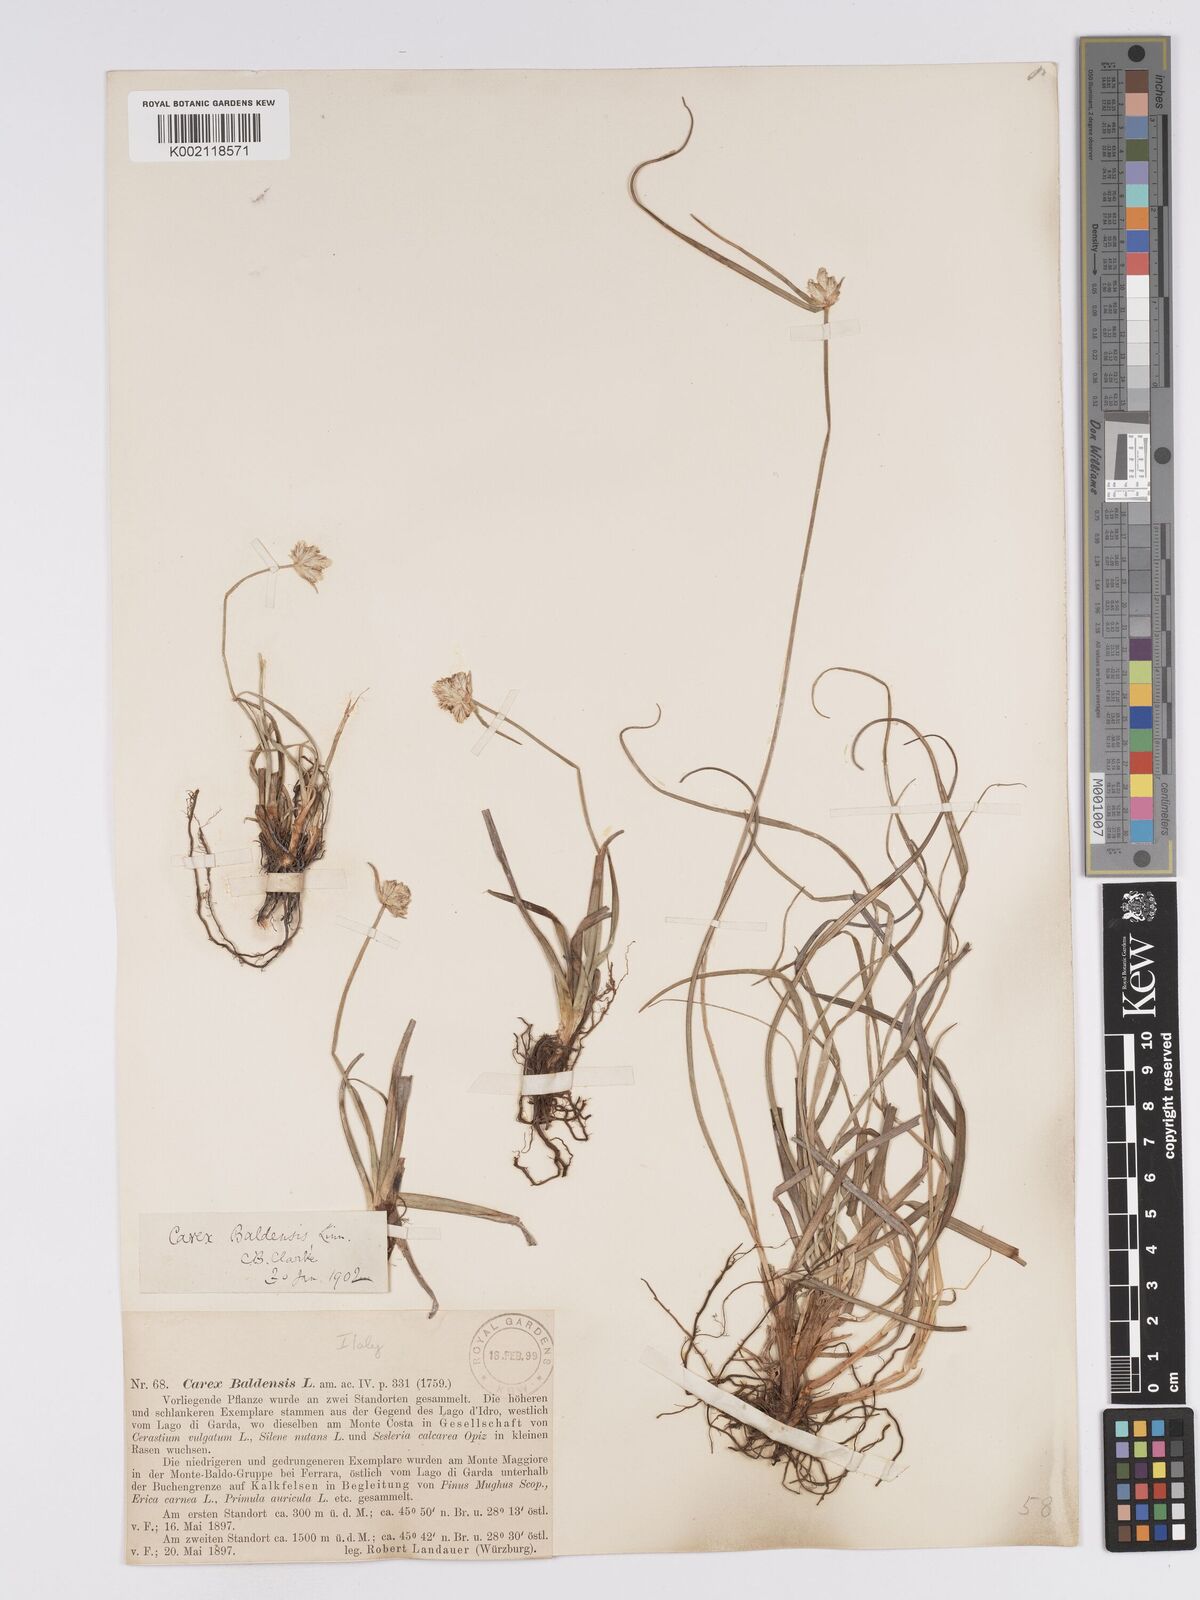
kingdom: Plantae
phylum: Tracheophyta
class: Liliopsida
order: Poales
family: Cyperaceae
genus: Carex
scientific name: Carex baldensis
